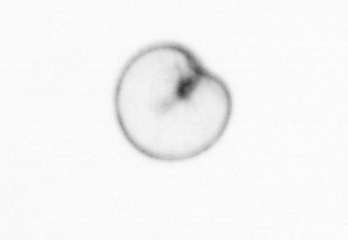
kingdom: Chromista
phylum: Myzozoa
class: Dinophyceae
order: Noctilucales
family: Noctilucaceae
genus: Noctiluca
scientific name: Noctiluca scintillans
